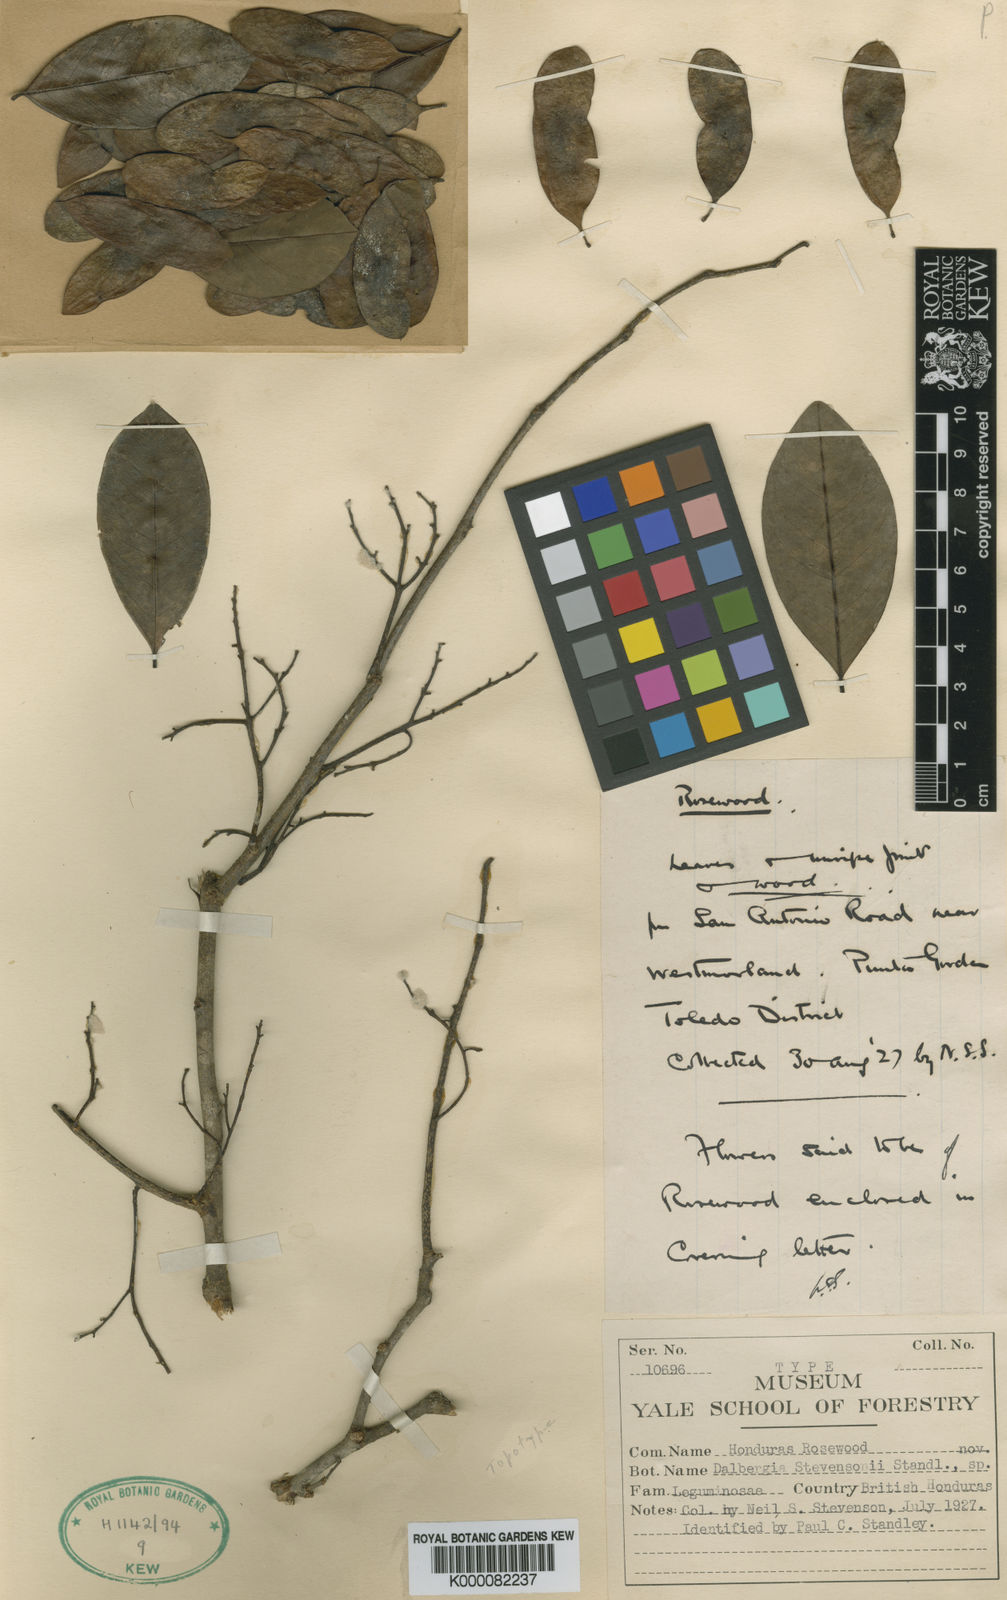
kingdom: Plantae
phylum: Tracheophyta
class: Magnoliopsida
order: Fabales
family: Fabaceae
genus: Dalbergia
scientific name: Dalbergia stevensonii
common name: Honduras rosewood
